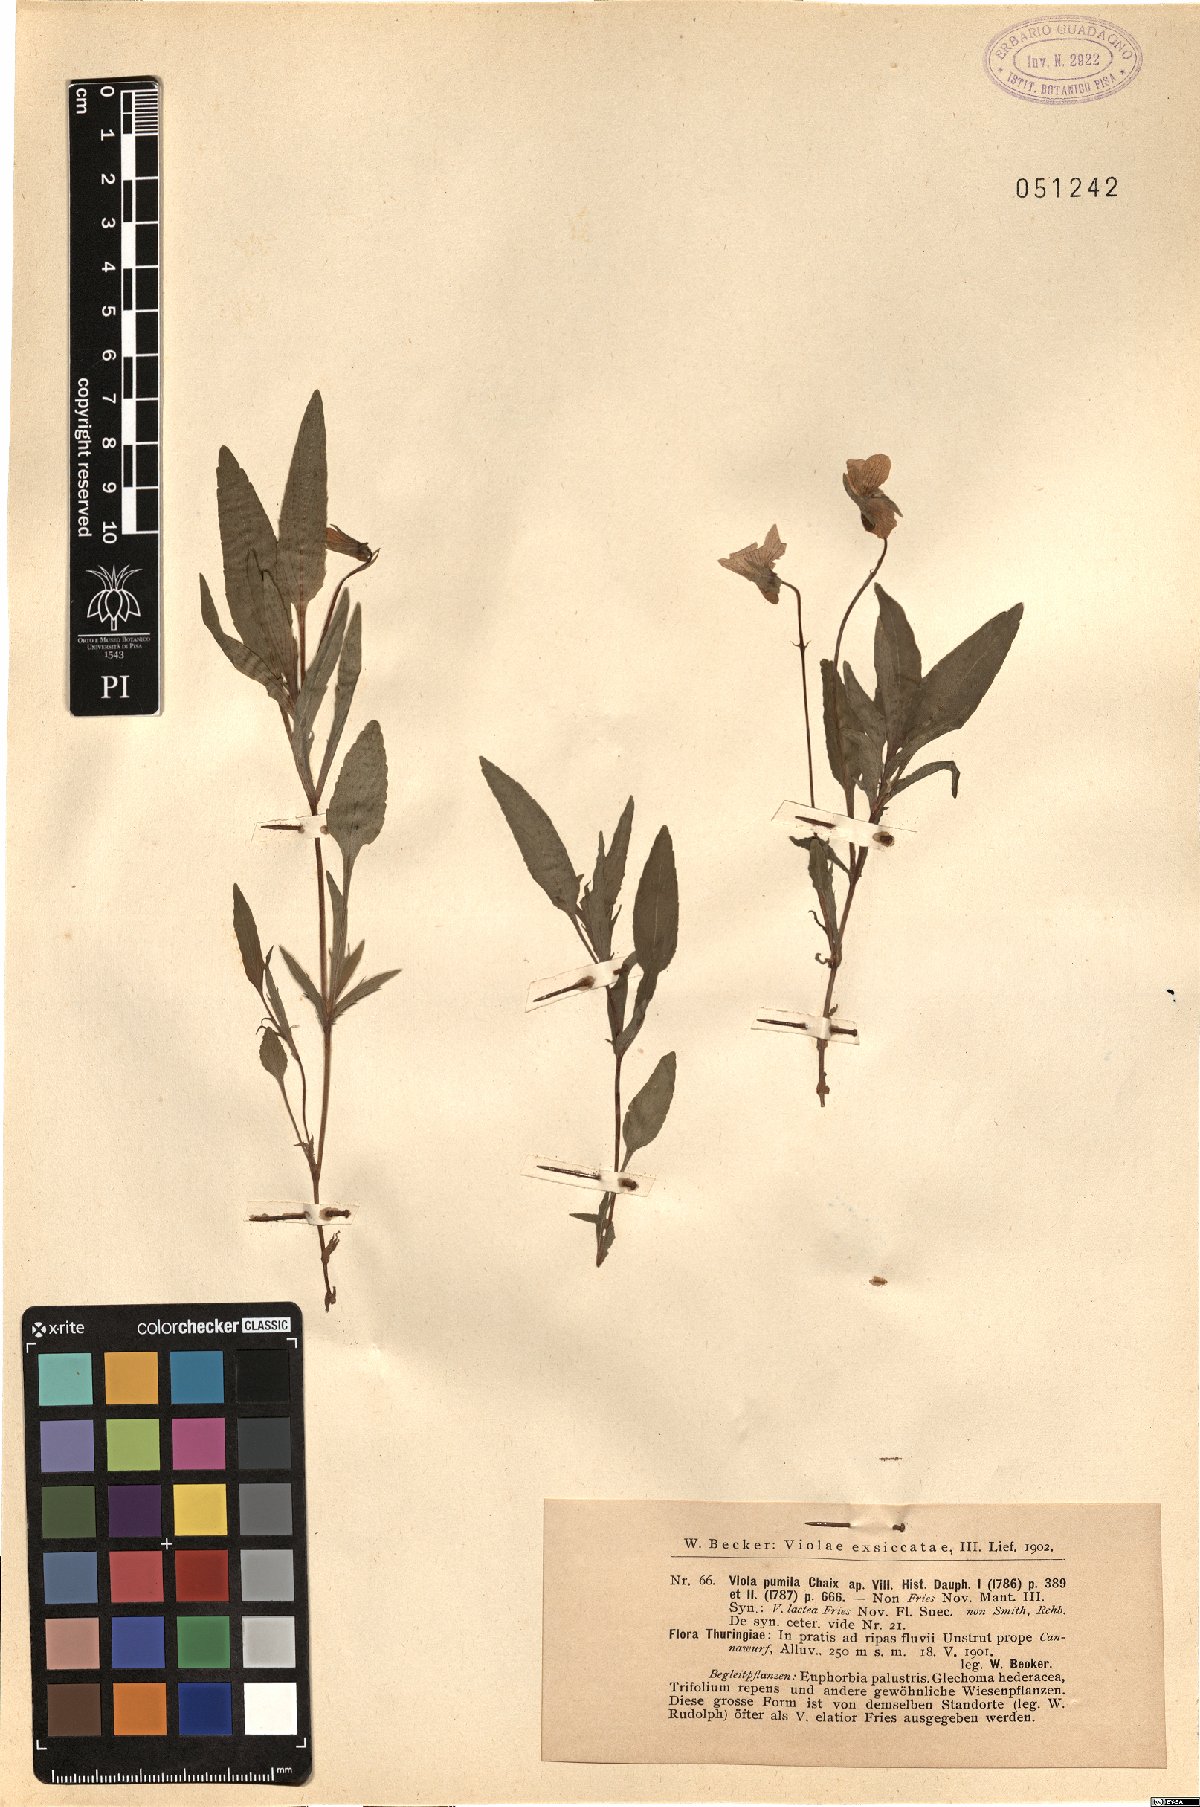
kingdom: Plantae
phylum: Tracheophyta
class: Magnoliopsida
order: Malpighiales
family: Violaceae
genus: Viola
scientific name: Viola pumila
